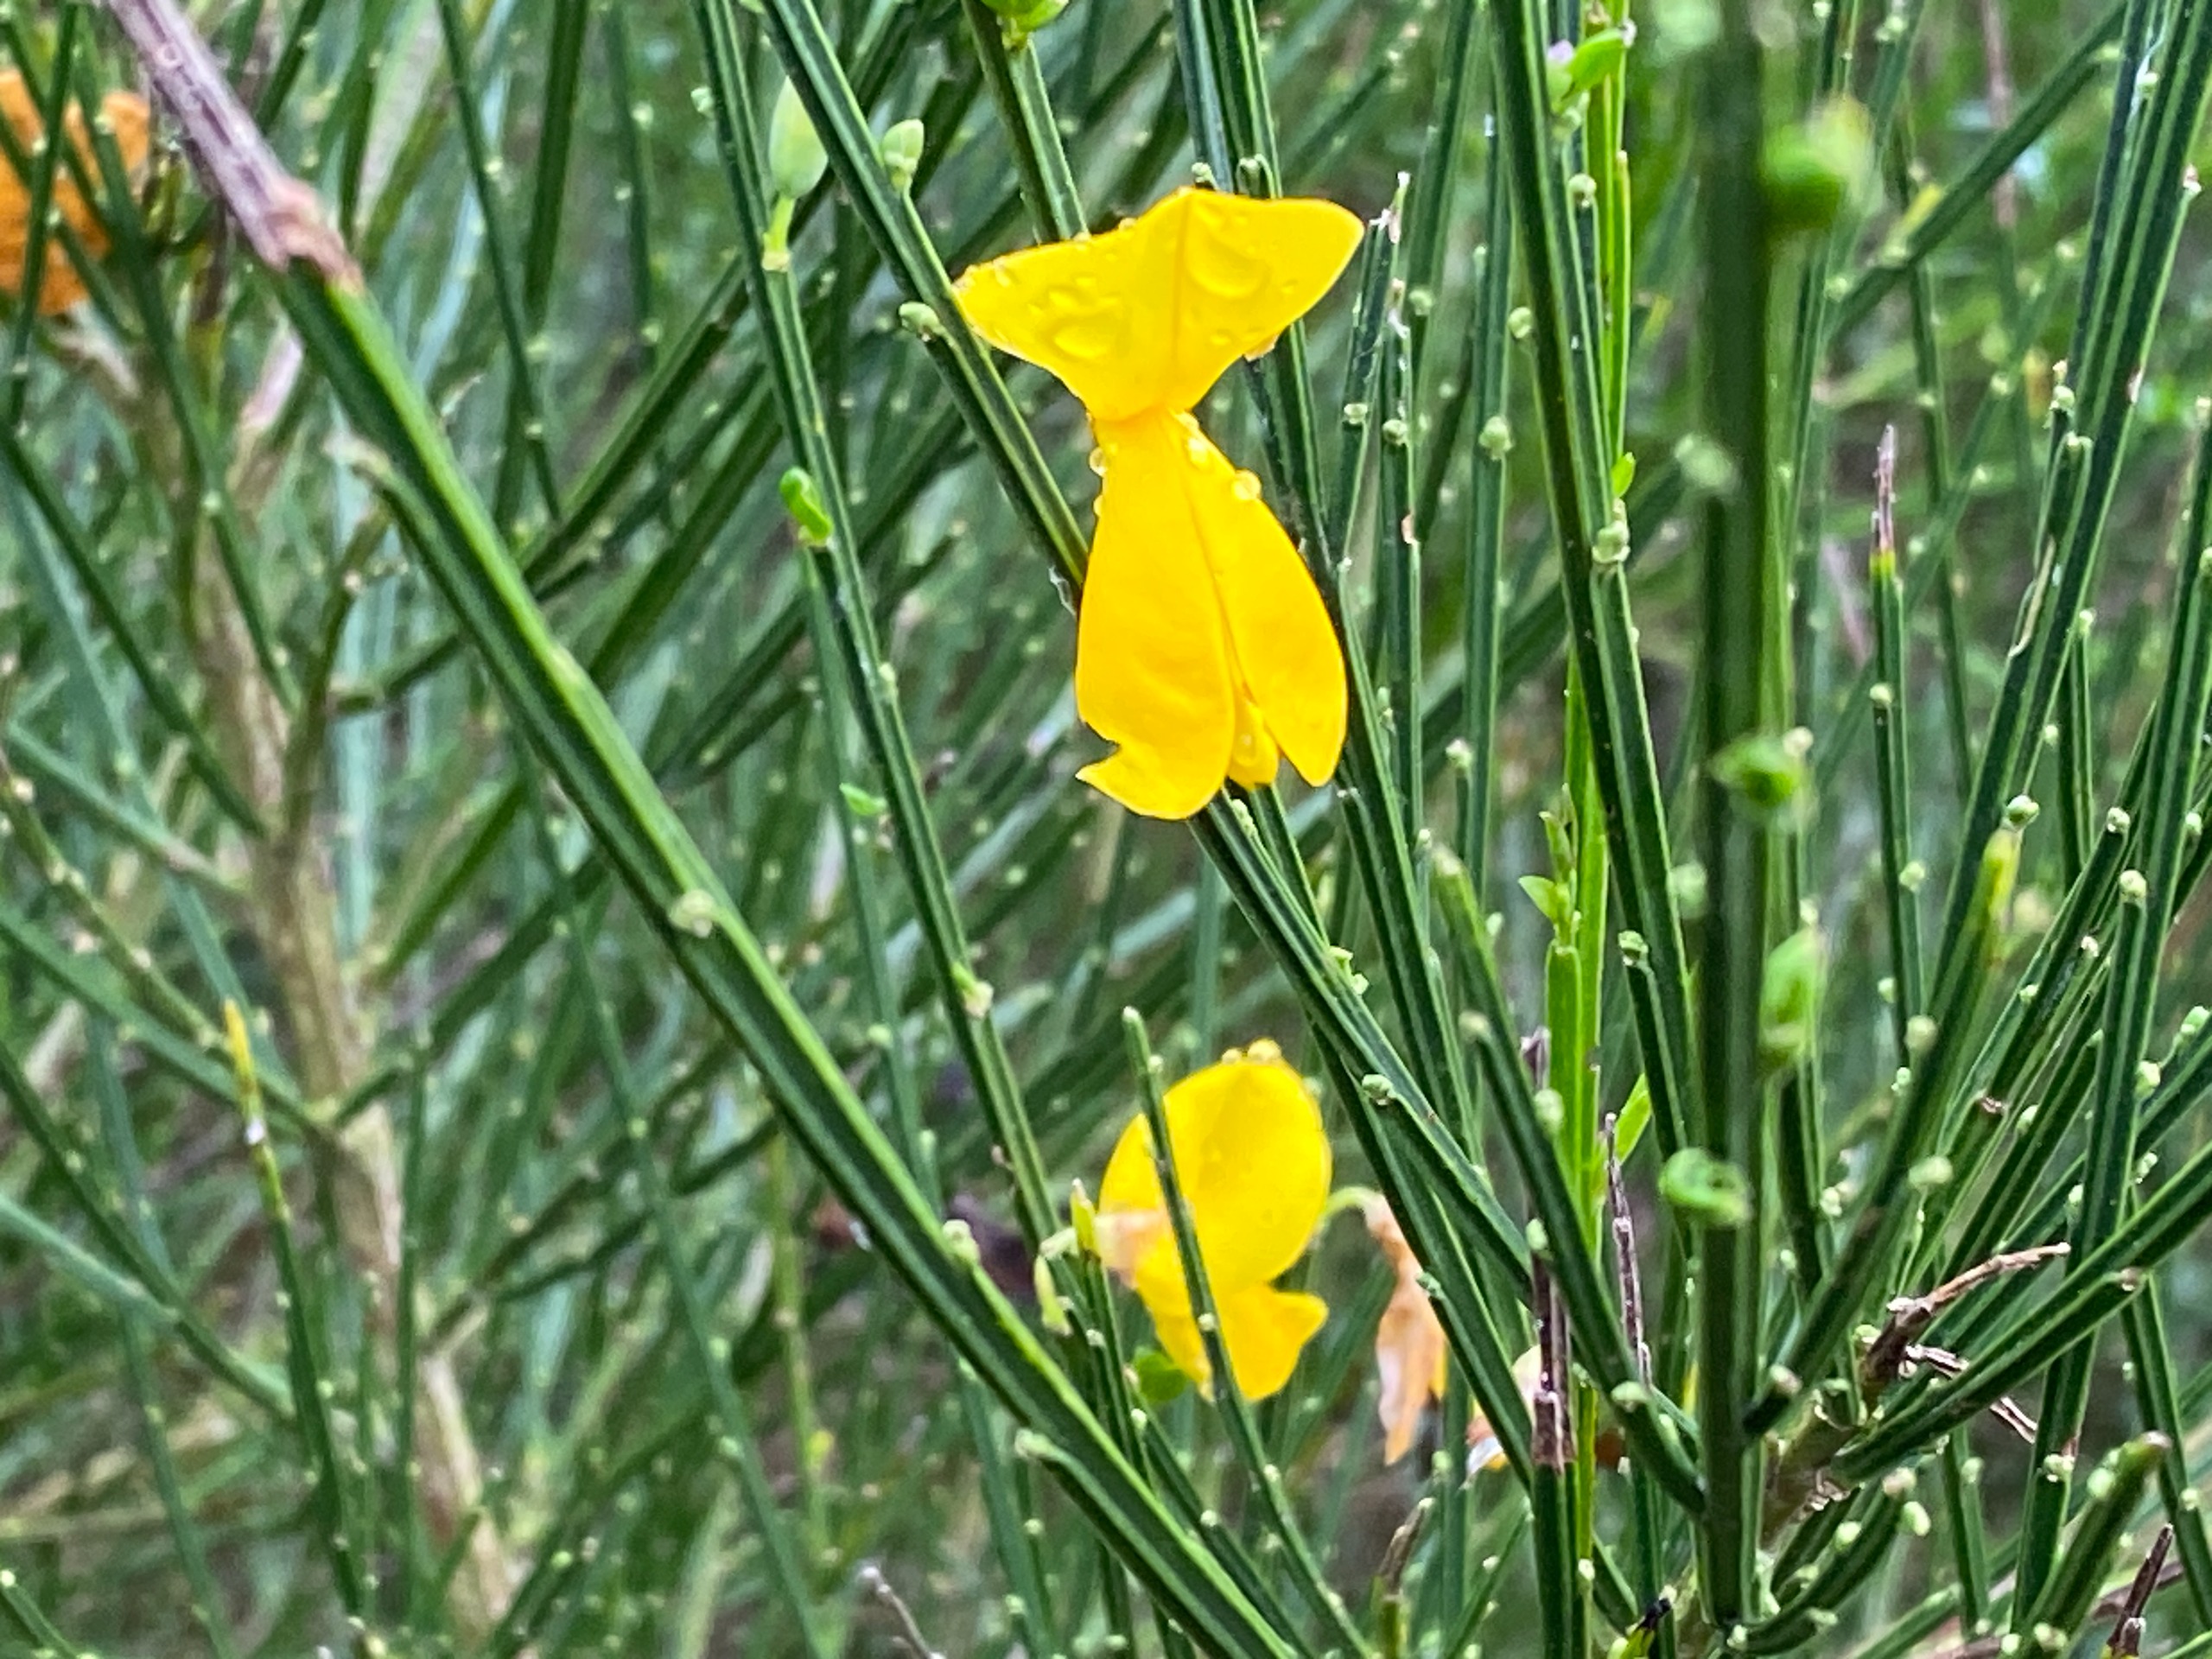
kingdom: Plantae
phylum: Tracheophyta
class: Magnoliopsida
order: Fabales
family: Fabaceae
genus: Cytisus
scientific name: Cytisus scoparius
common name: Almindelig gyvel
